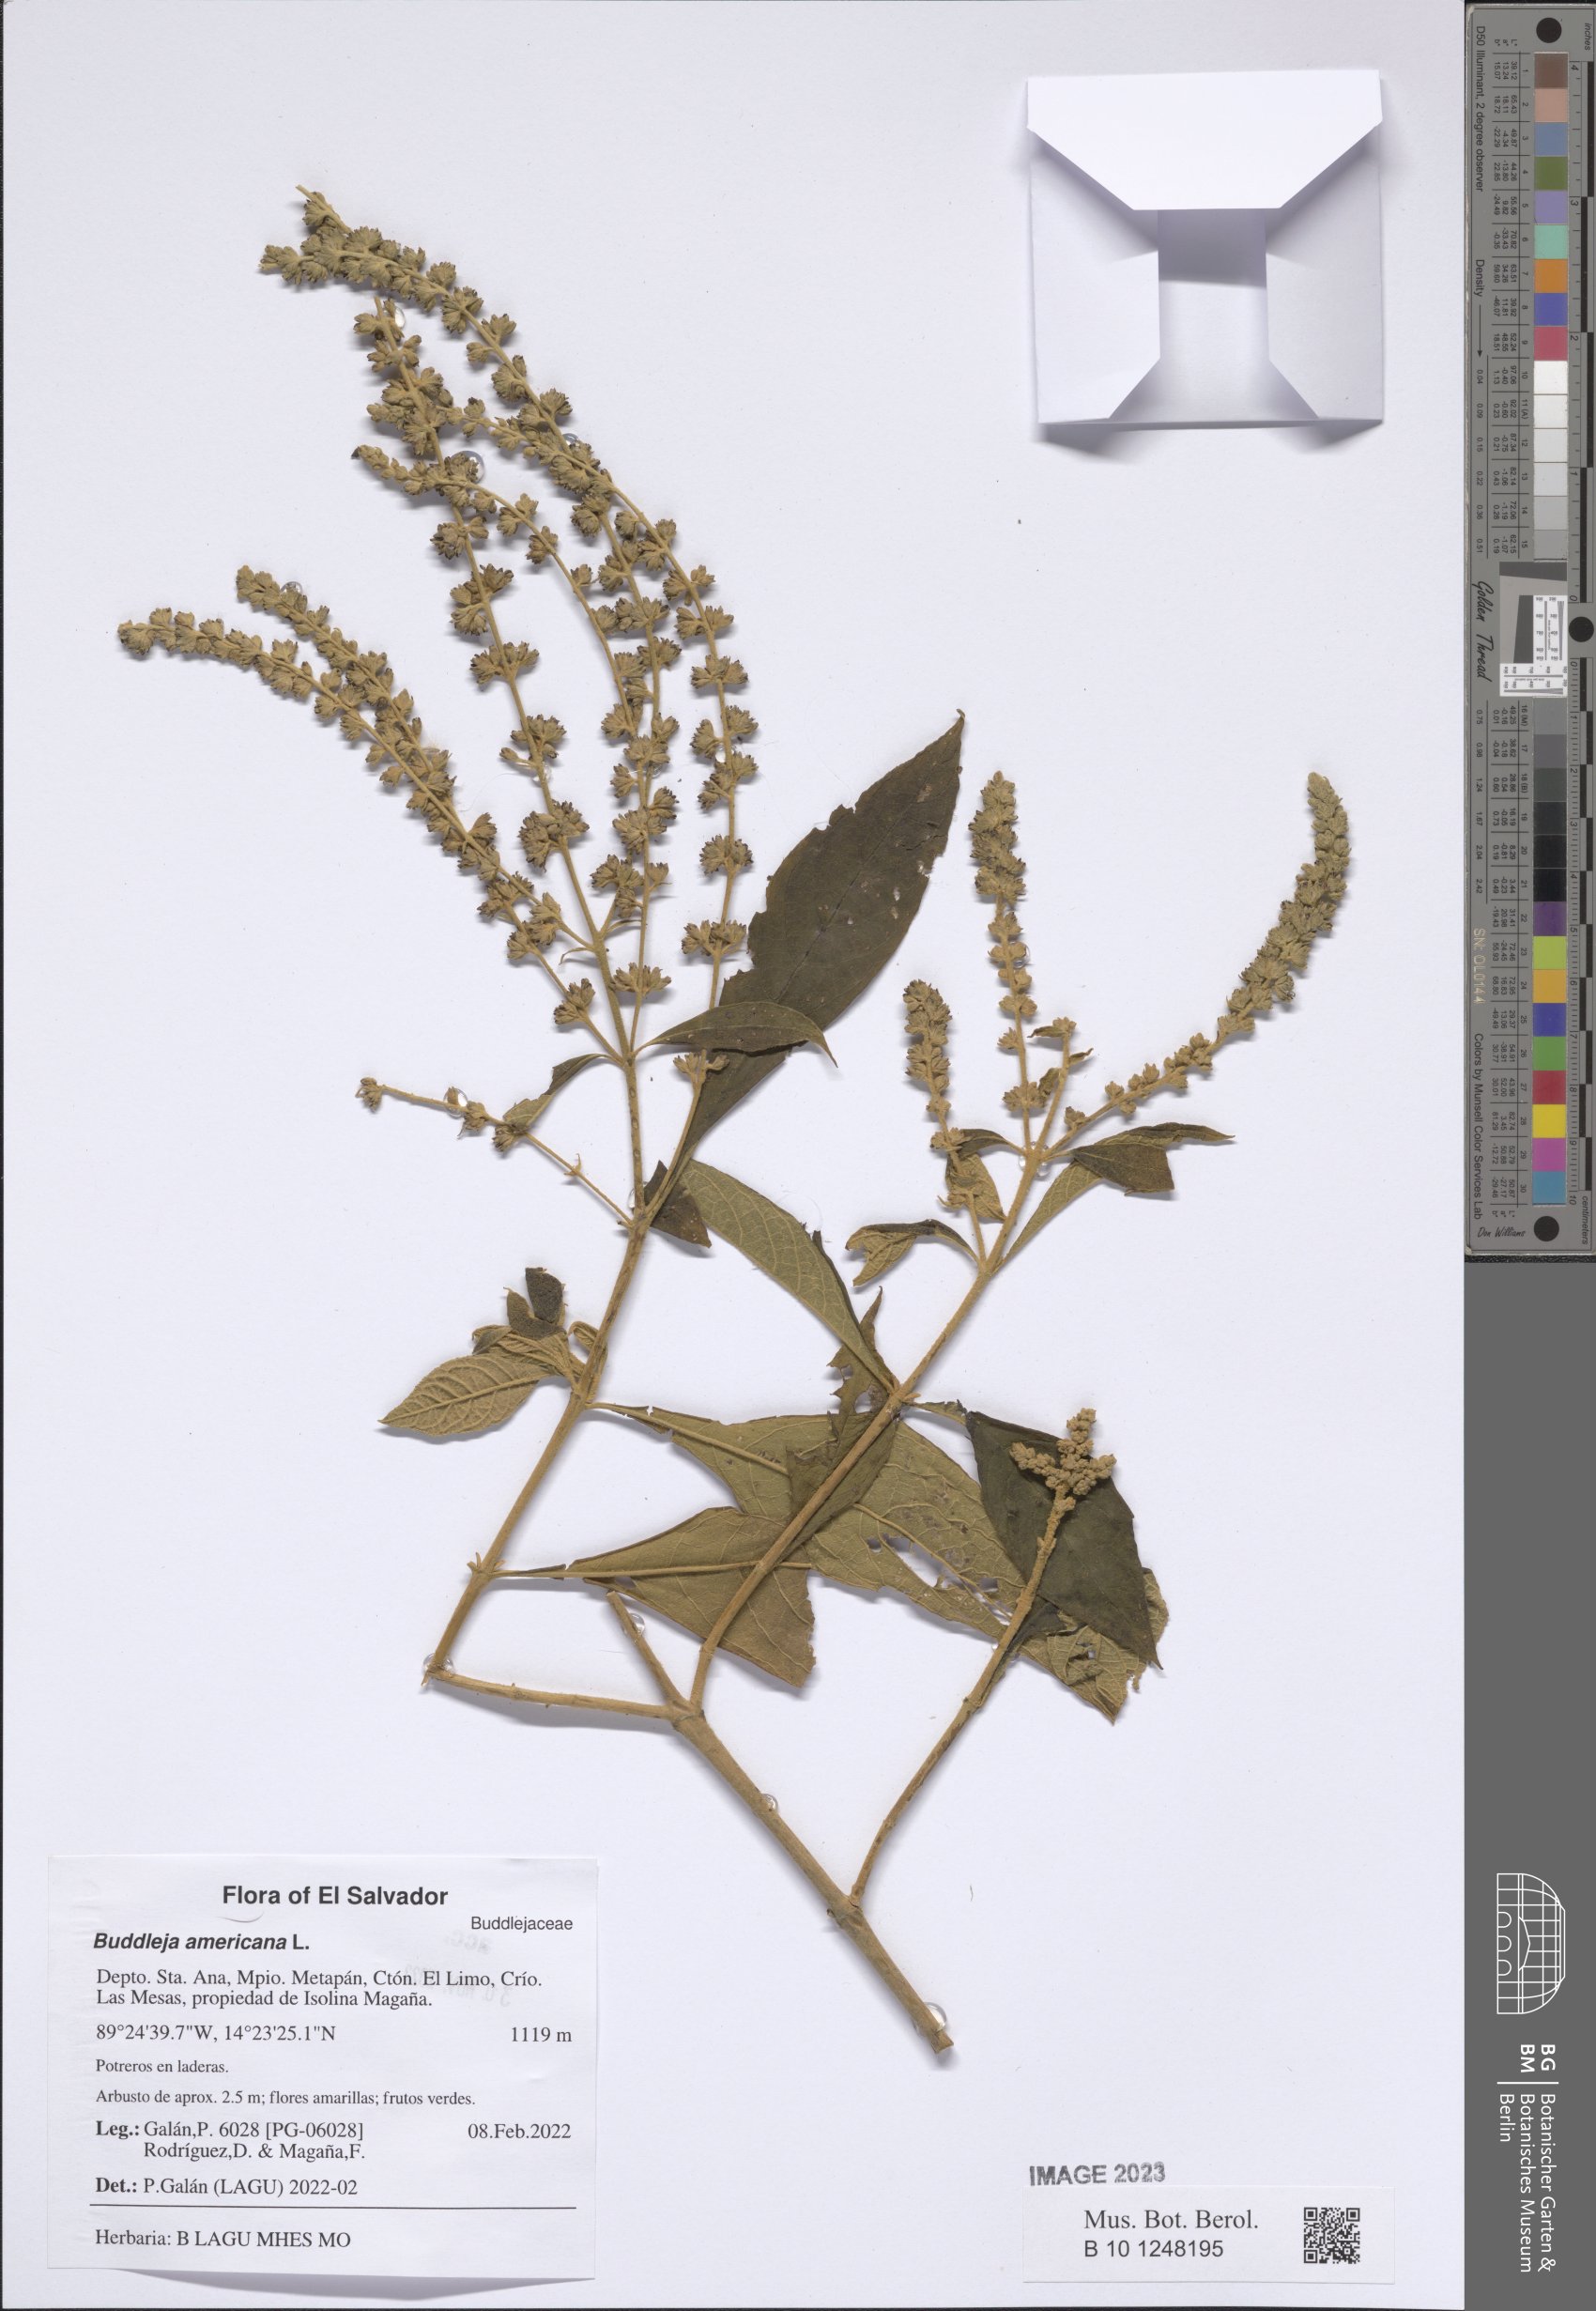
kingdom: Plantae
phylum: Tracheophyta
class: Magnoliopsida
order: Lamiales
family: Scrophulariaceae
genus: Buddleja
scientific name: Buddleja americana
